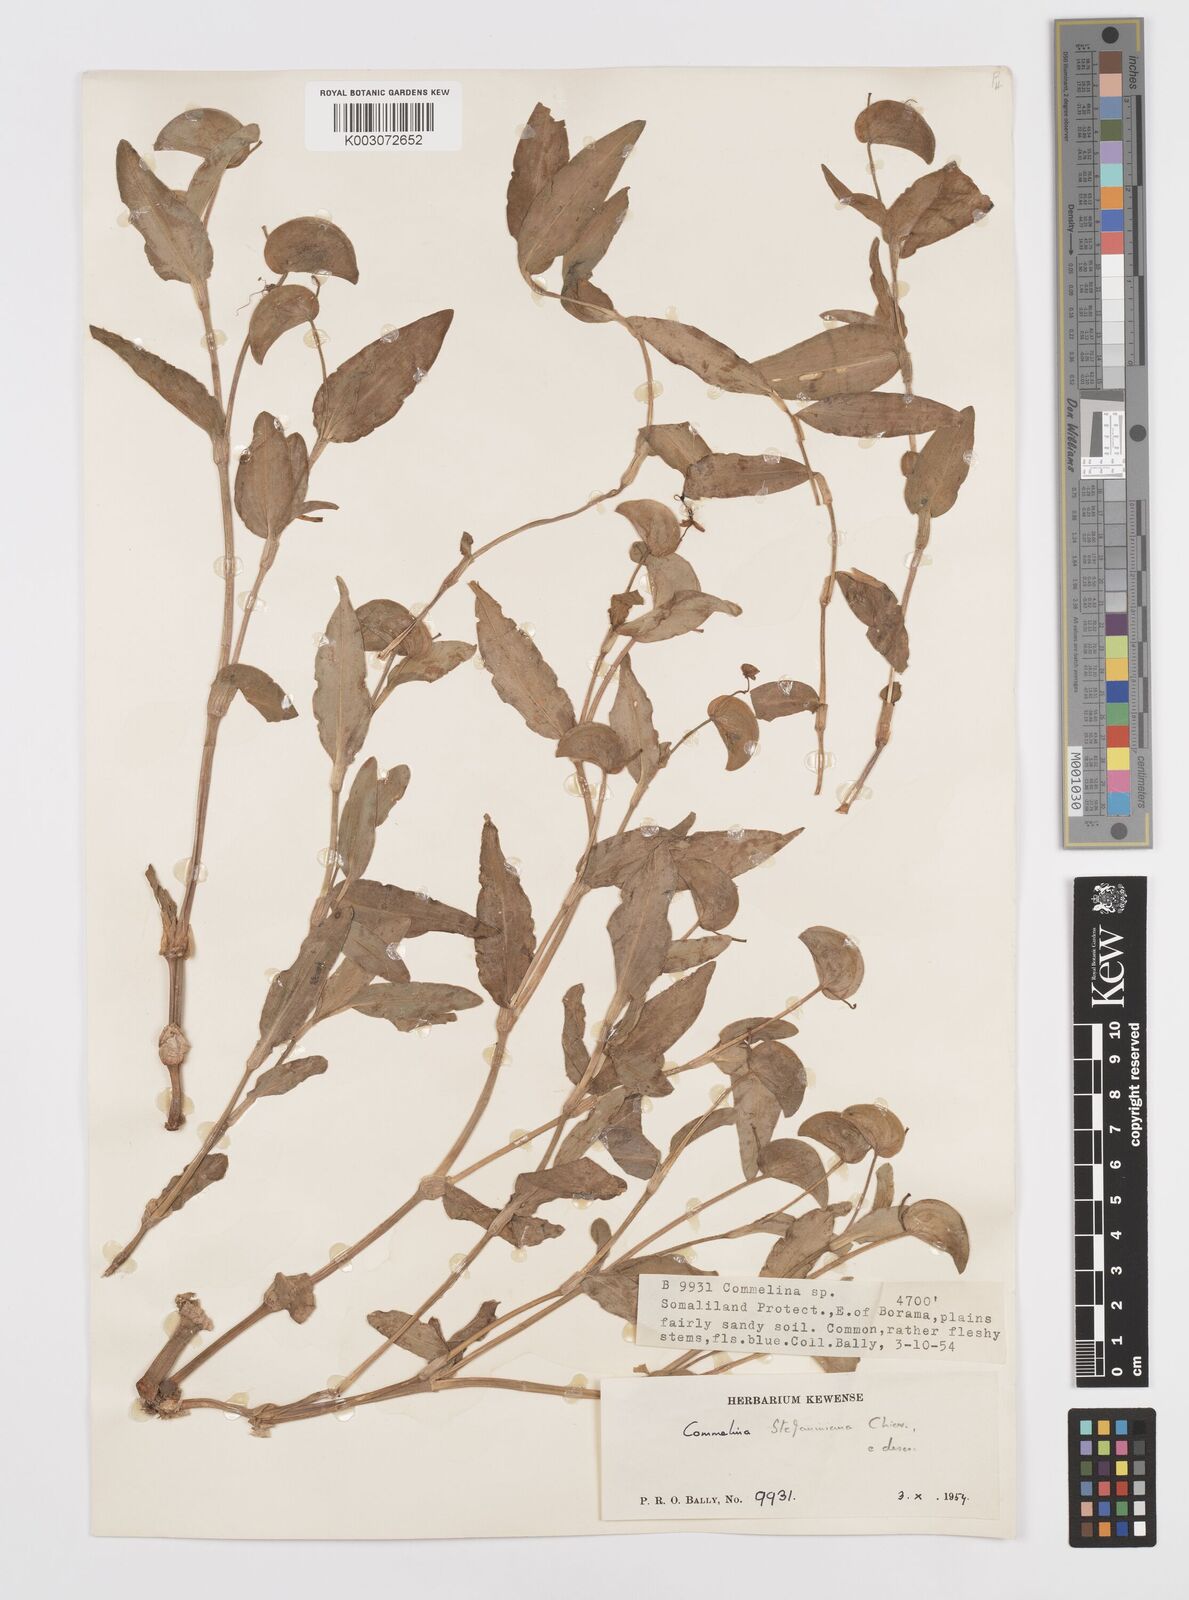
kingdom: Plantae
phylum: Tracheophyta
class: Liliopsida
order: Commelinales
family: Commelinaceae
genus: Commelina
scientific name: Commelina stefaniniana
